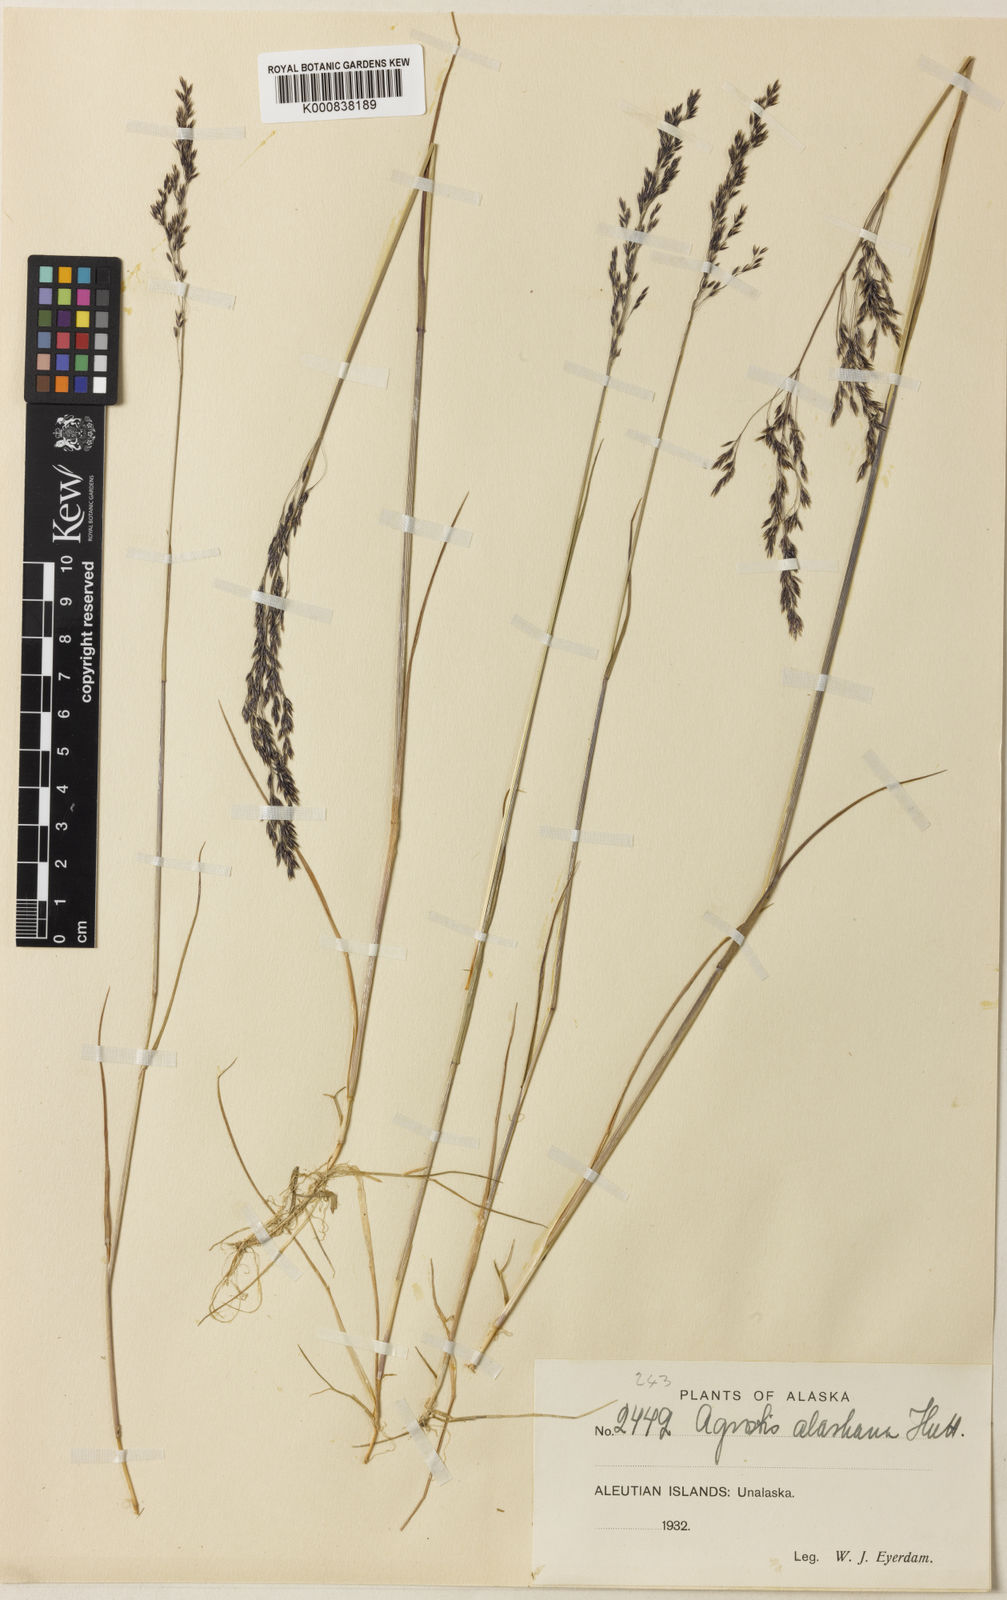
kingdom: Plantae
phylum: Tracheophyta
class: Liliopsida
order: Poales
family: Poaceae
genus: Agrostis
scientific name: Agrostis
